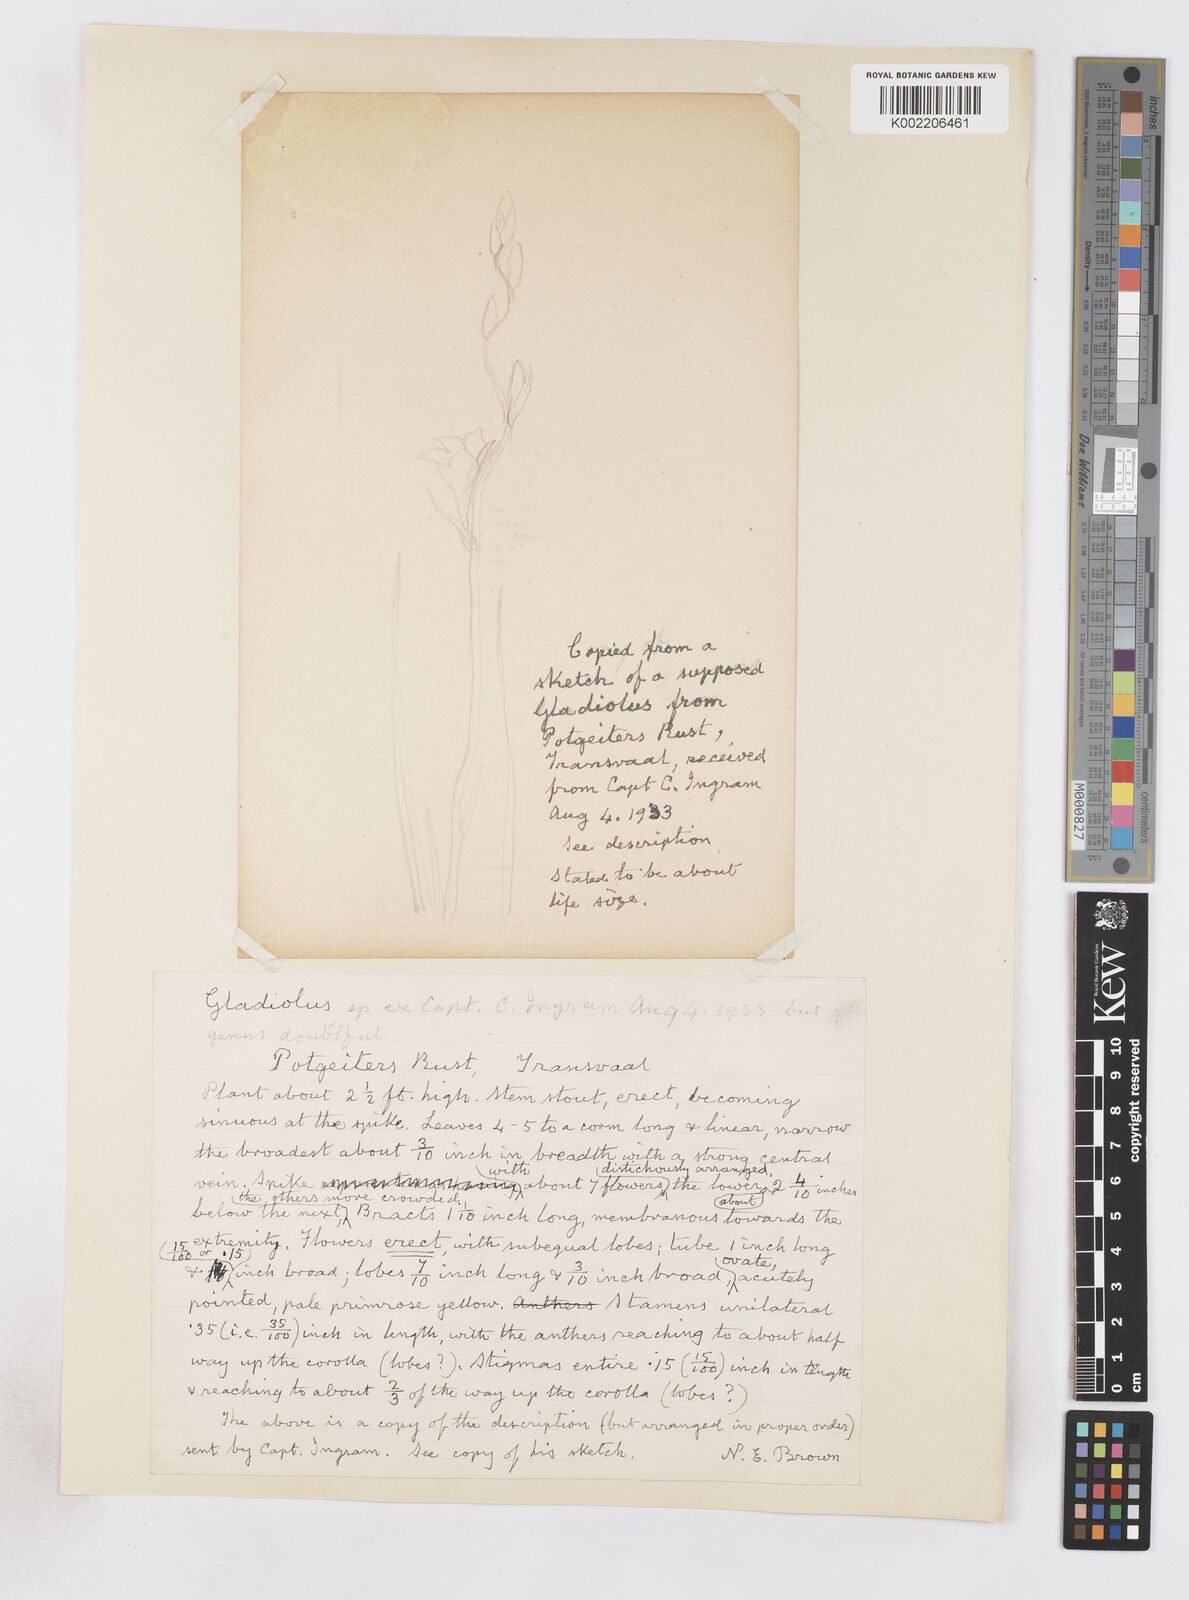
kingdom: Plantae
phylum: Tracheophyta
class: Liliopsida
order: Asparagales
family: Iridaceae
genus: Gladiolus
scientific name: Gladiolus antholyzoides
